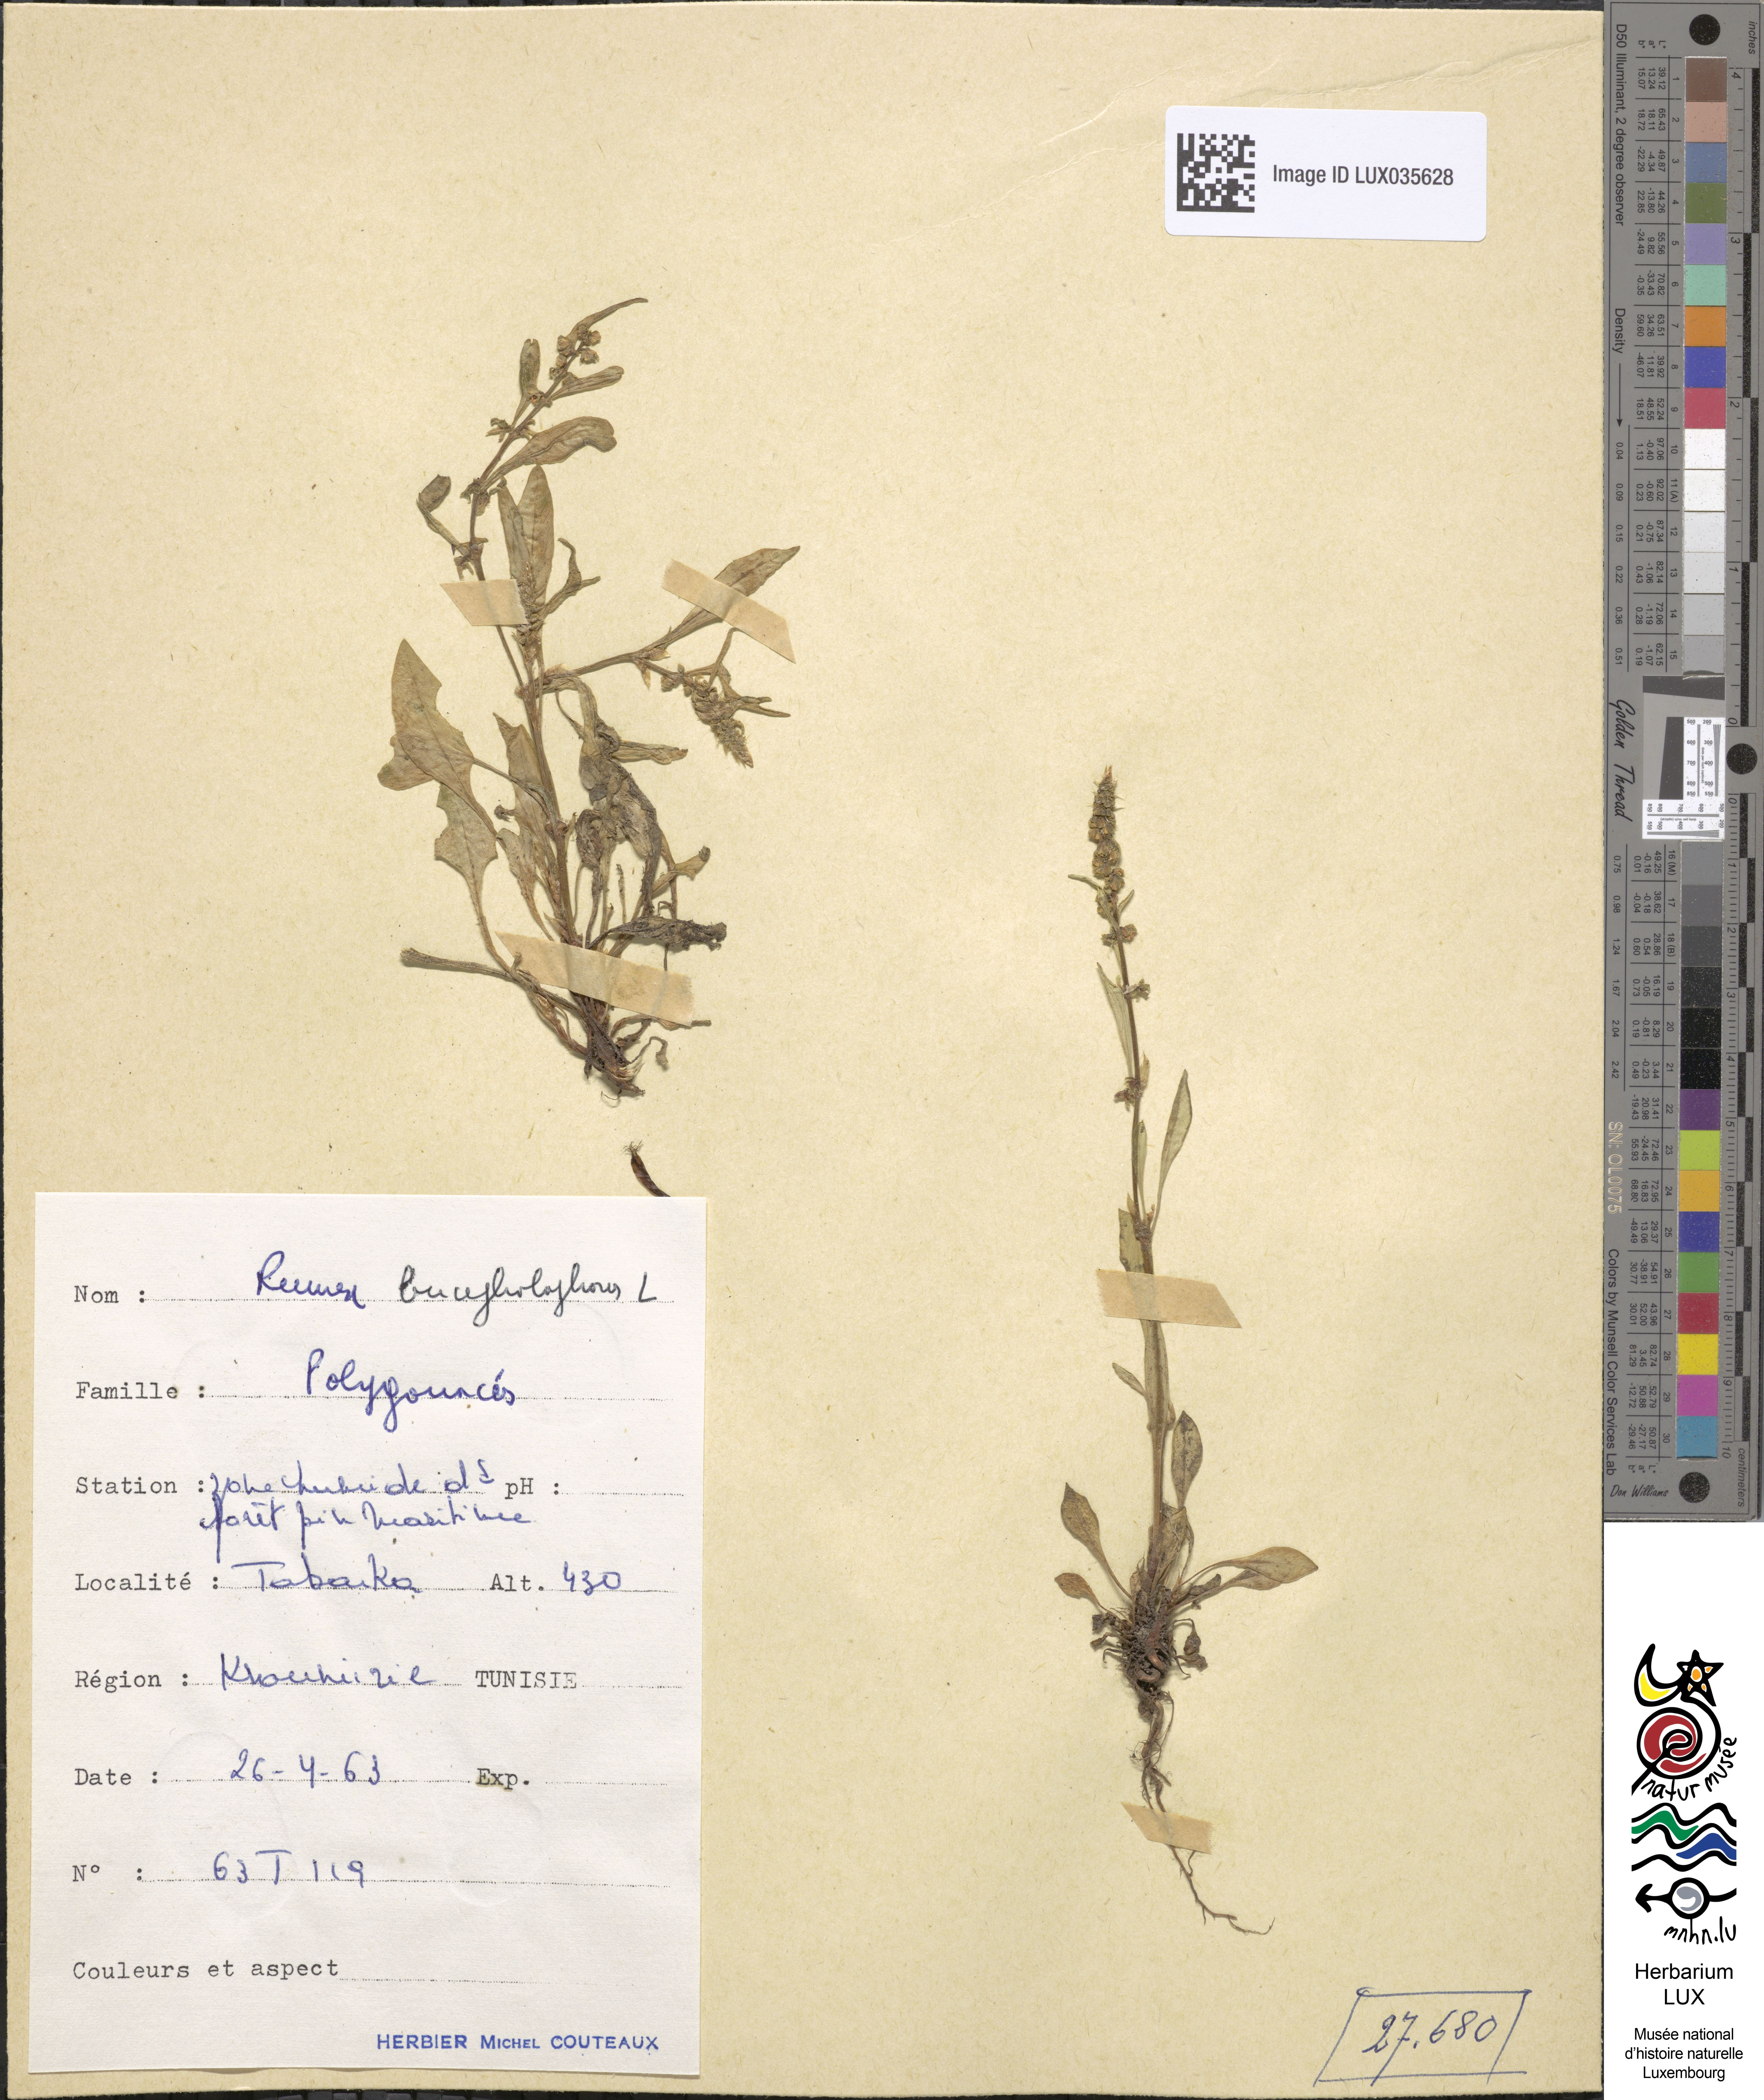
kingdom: Plantae
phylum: Tracheophyta
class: Magnoliopsida
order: Caryophyllales
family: Polygonaceae
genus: Rumex
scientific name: Rumex bucephalophorus
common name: Red dock
